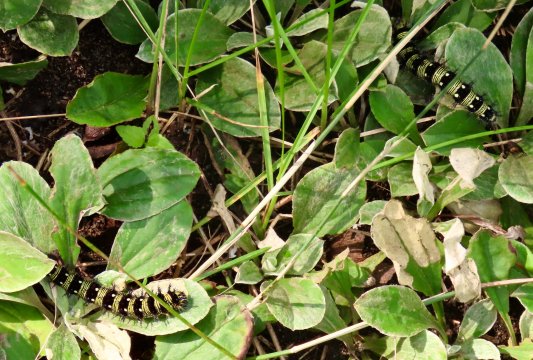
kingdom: Animalia
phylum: Arthropoda
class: Insecta
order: Lepidoptera
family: Nymphalidae
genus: Vanessa
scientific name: Vanessa virginiensis
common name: American Lady
